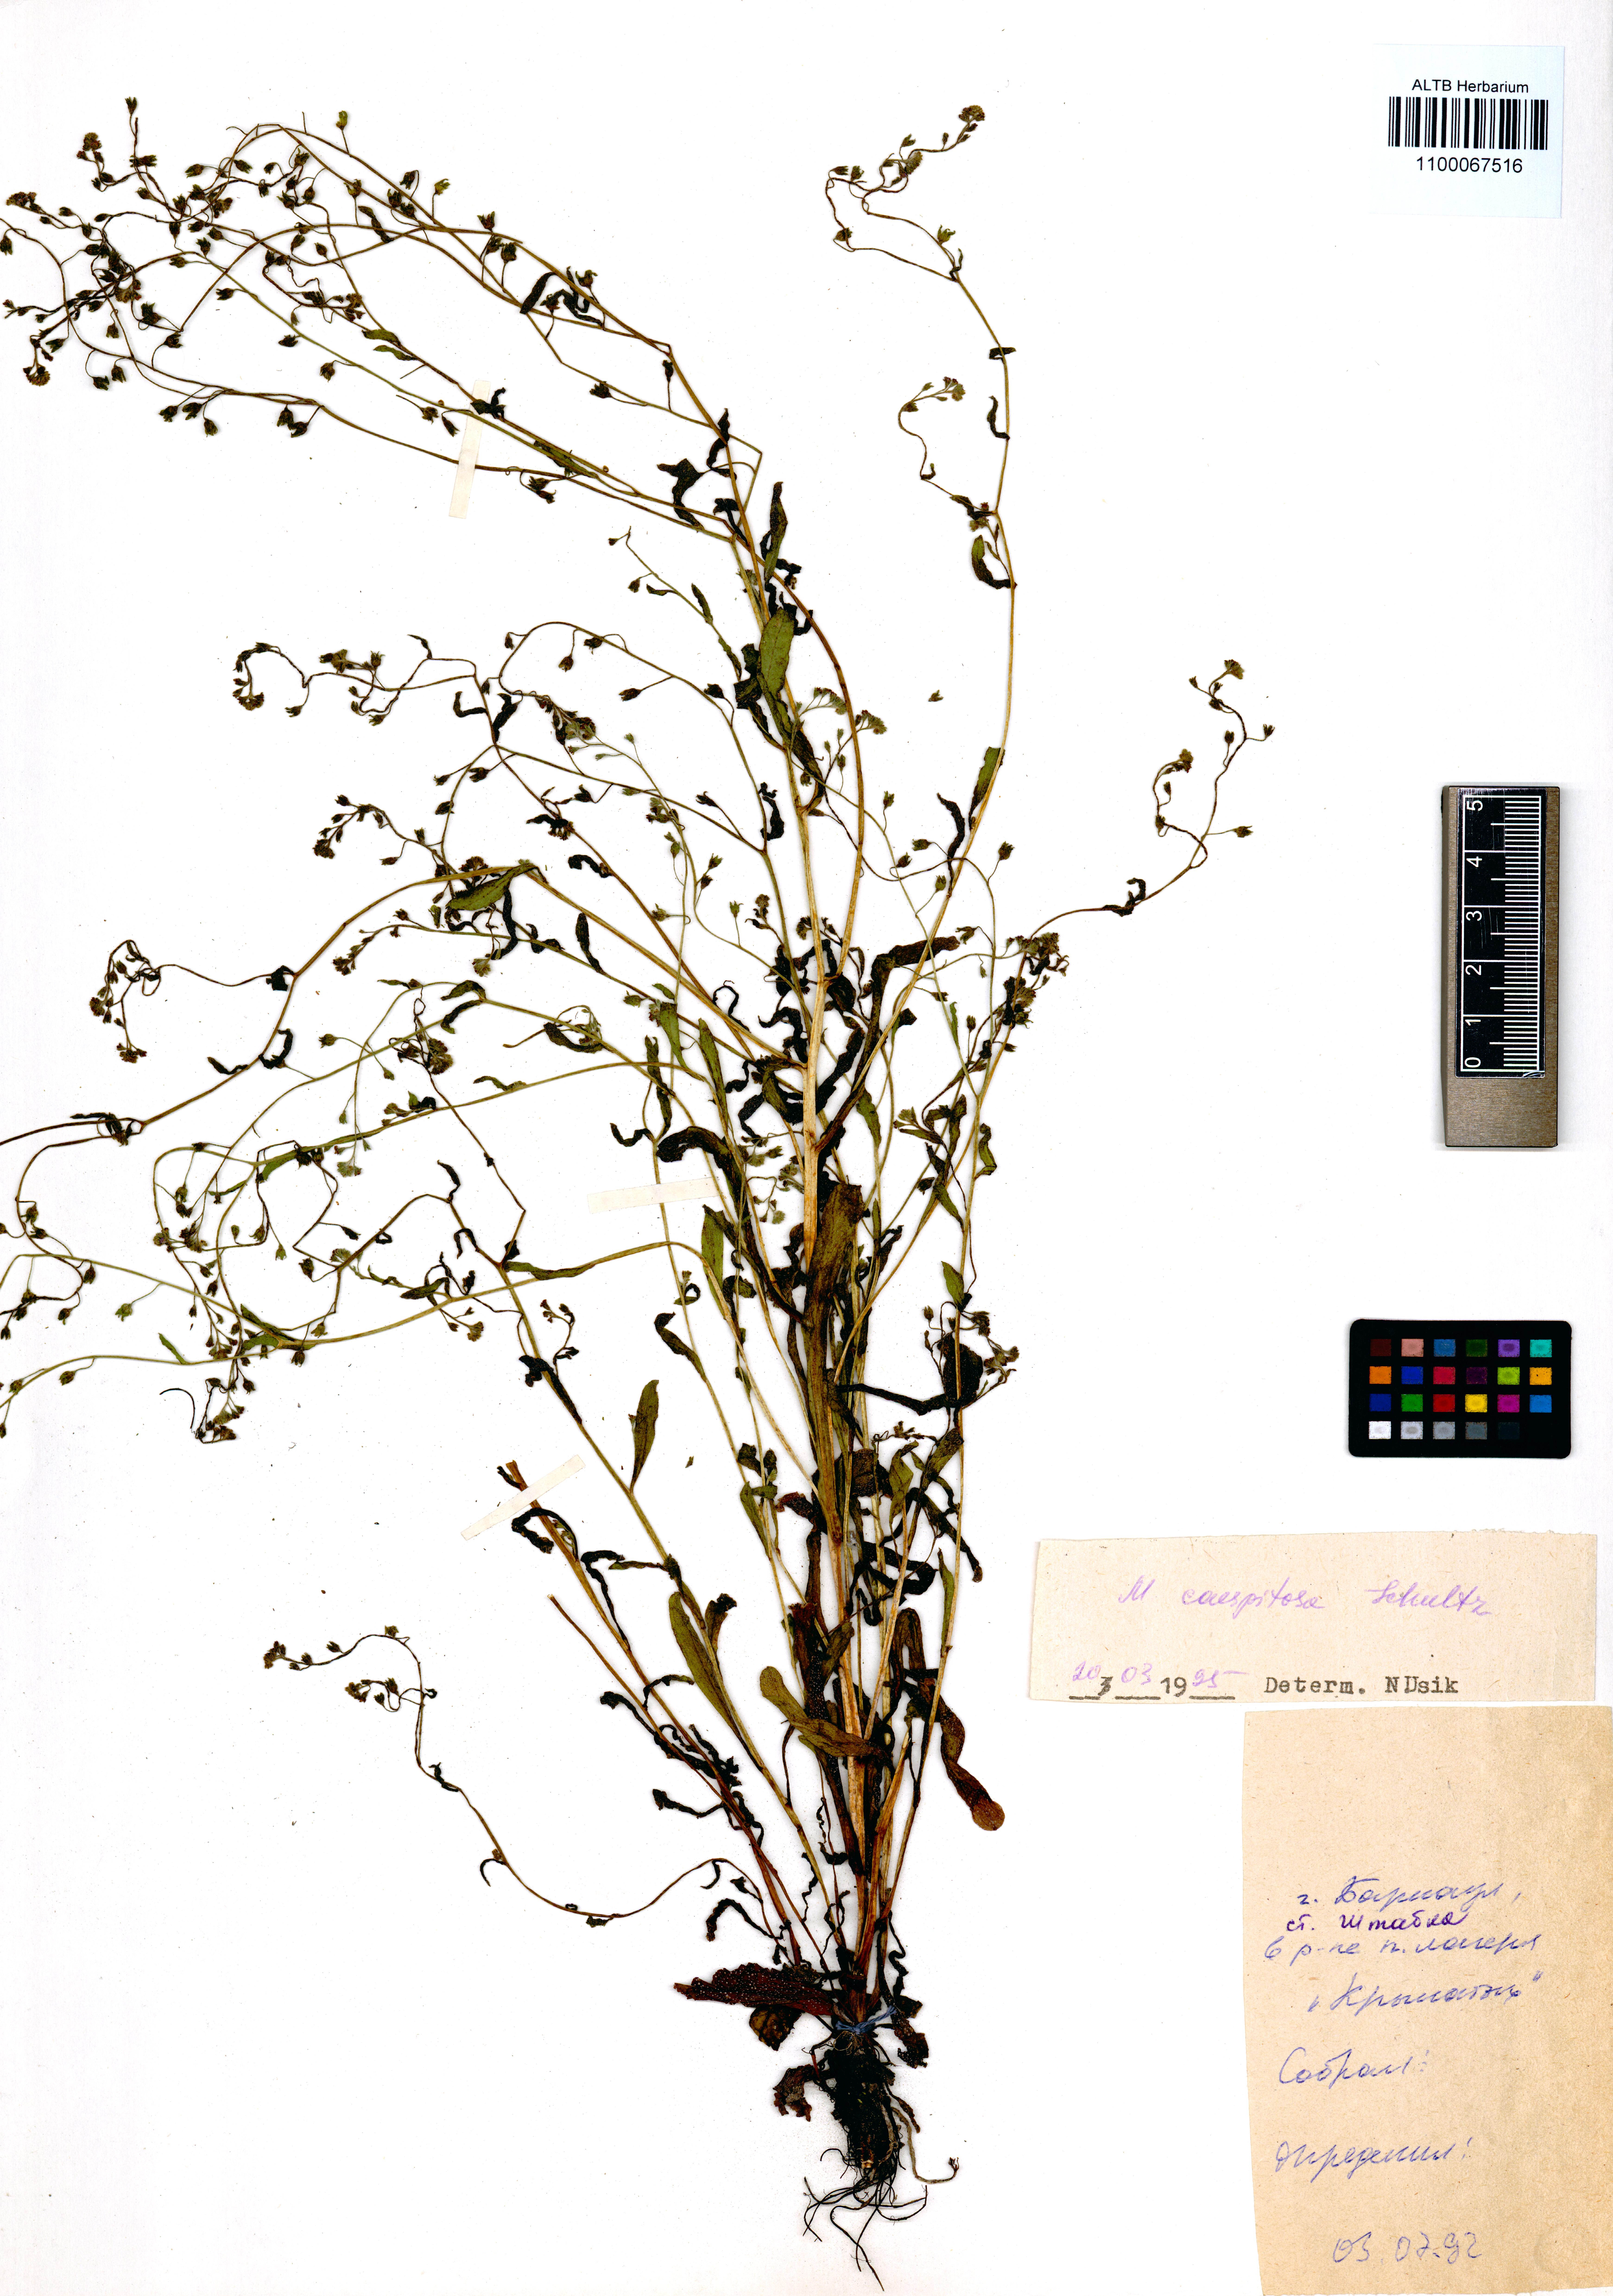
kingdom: Plantae
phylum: Tracheophyta
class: Magnoliopsida
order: Boraginales
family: Boraginaceae
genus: Myosotis
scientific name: Myosotis laxa
